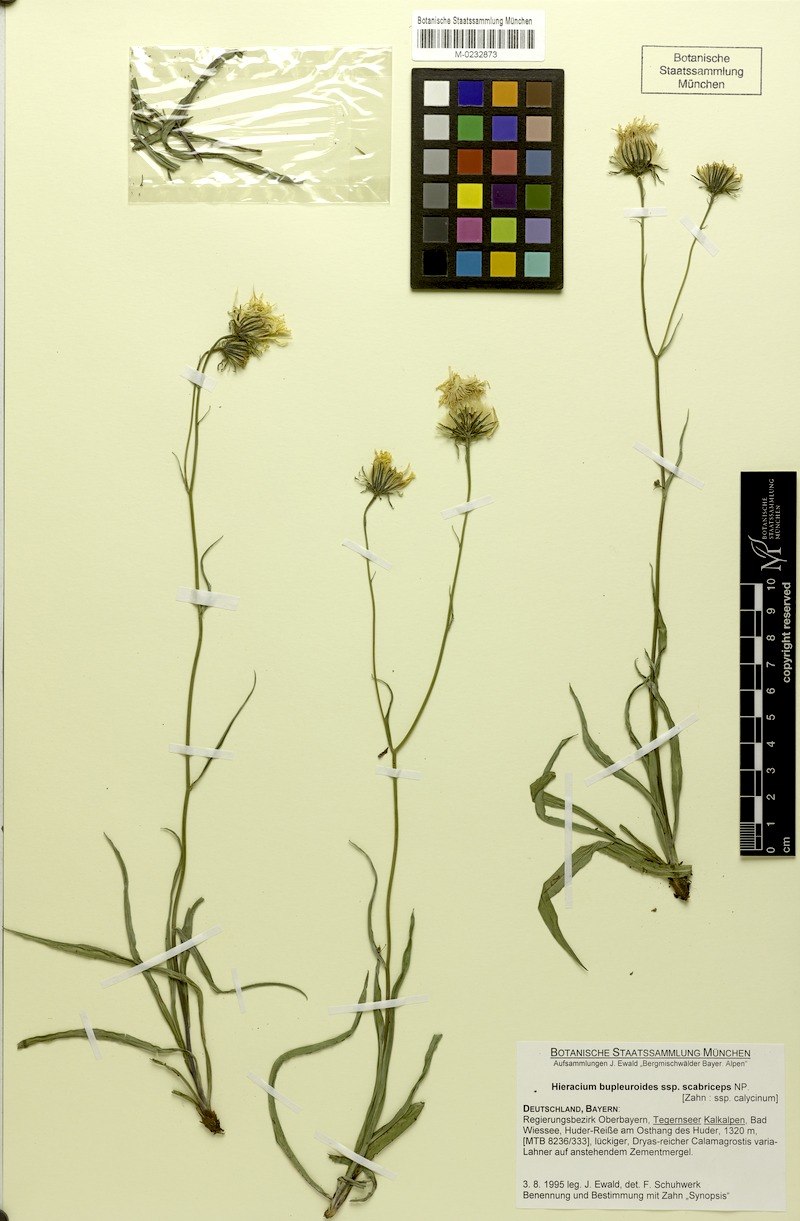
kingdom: Plantae
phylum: Tracheophyta
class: Magnoliopsida
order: Asterales
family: Asteraceae
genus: Hieracium
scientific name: Hieracium bupleuroides
